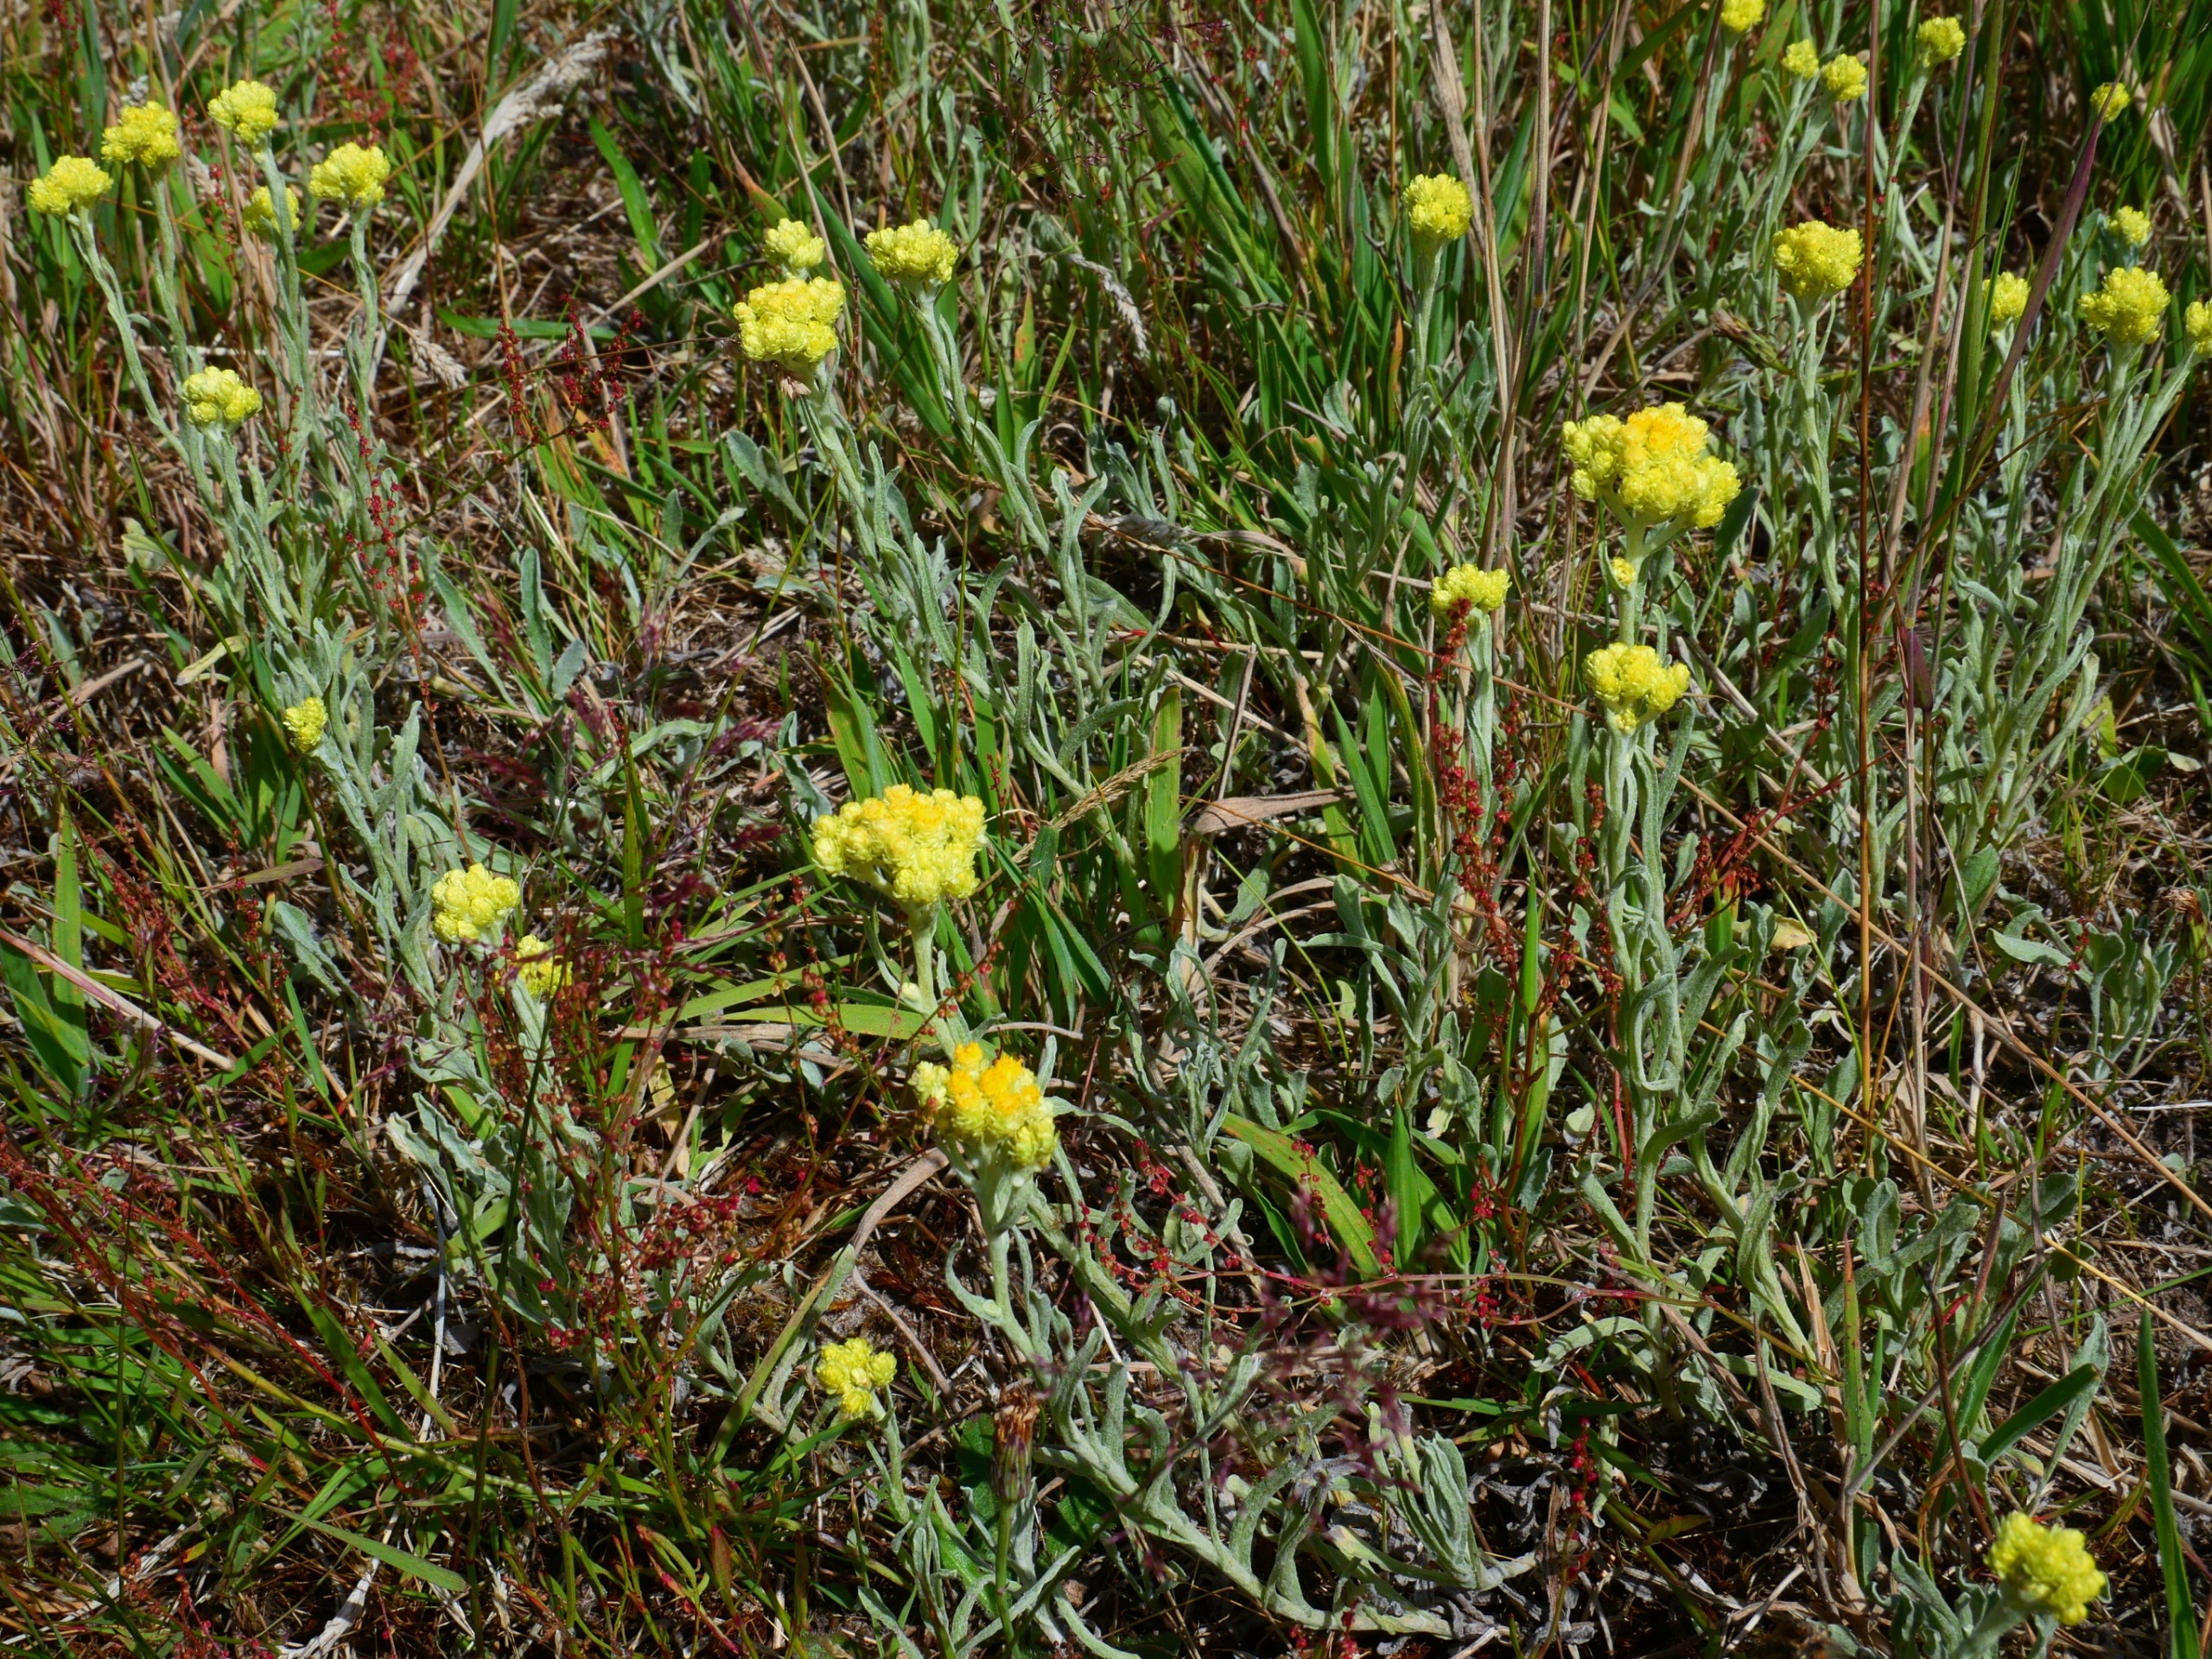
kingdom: Plantae
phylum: Tracheophyta
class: Magnoliopsida
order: Asterales
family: Asteraceae
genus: Helichrysum
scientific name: Helichrysum arenarium
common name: Gul evighedsblomst
